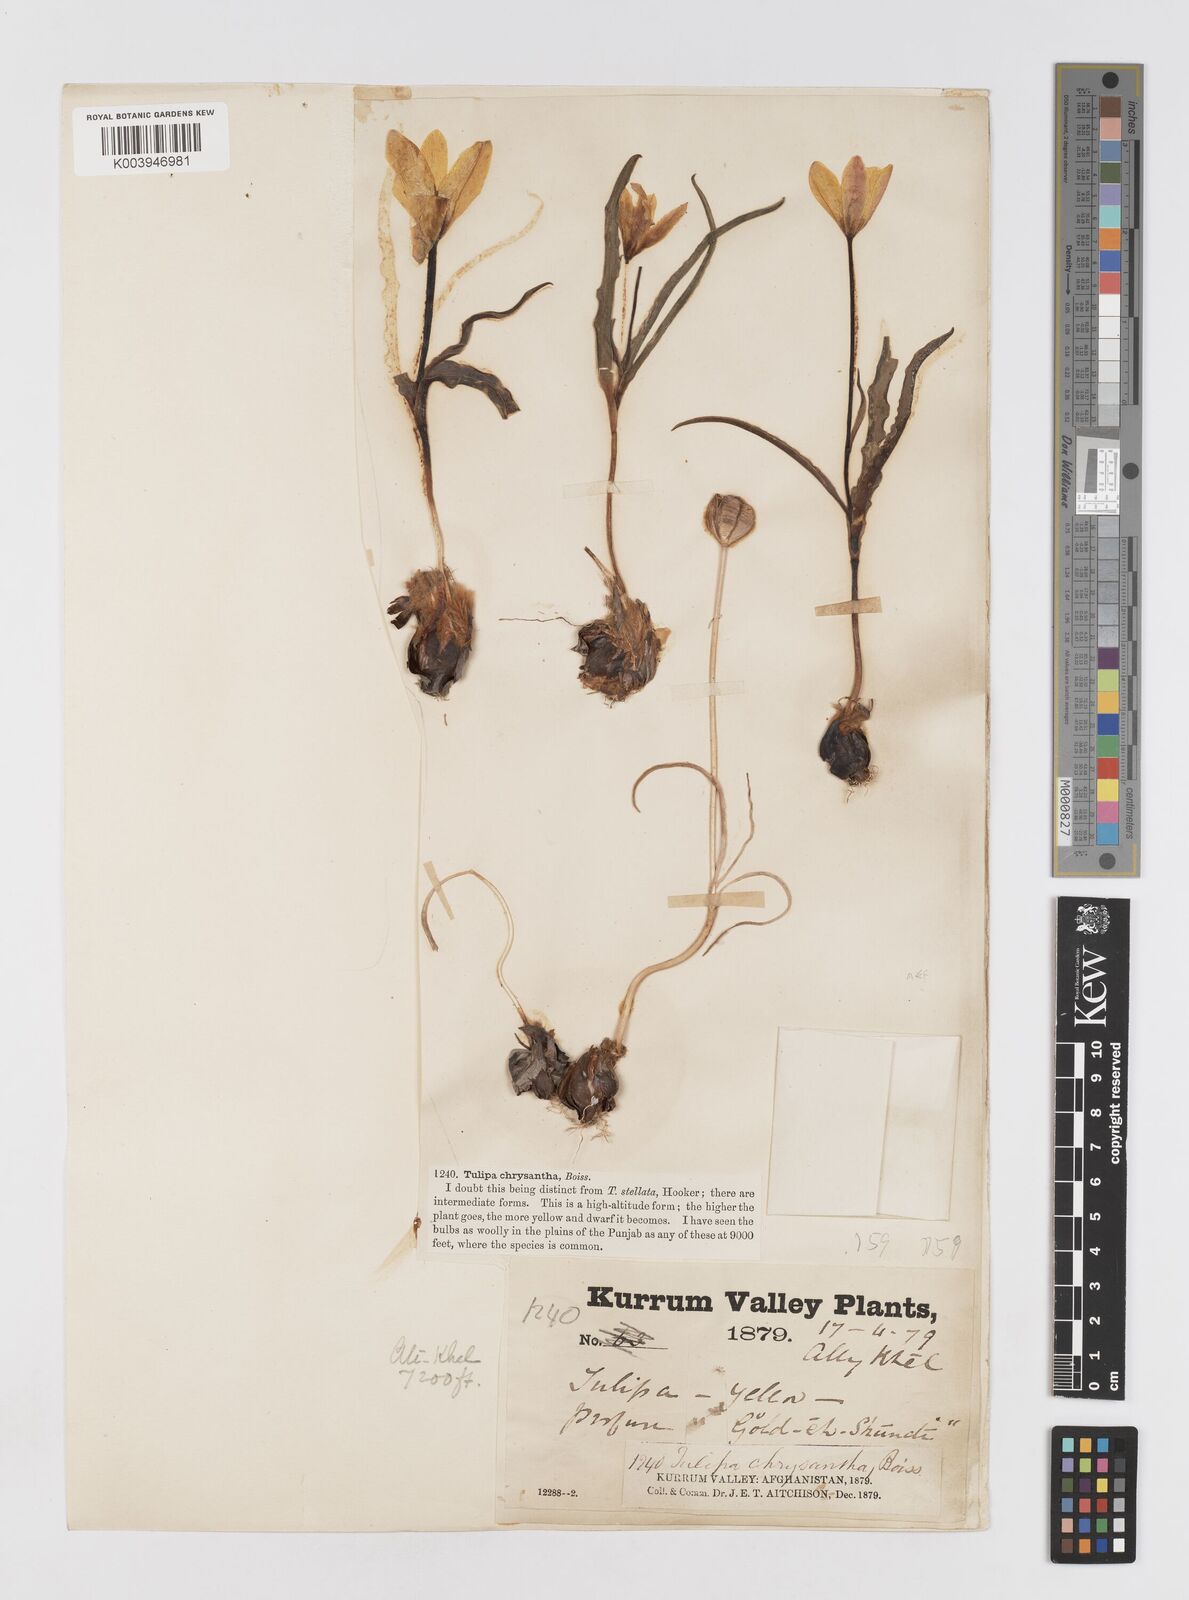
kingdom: Plantae
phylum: Tracheophyta
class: Liliopsida
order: Liliales
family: Liliaceae
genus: Tulipa
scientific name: Tulipa clusiana
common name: Lady tulip
